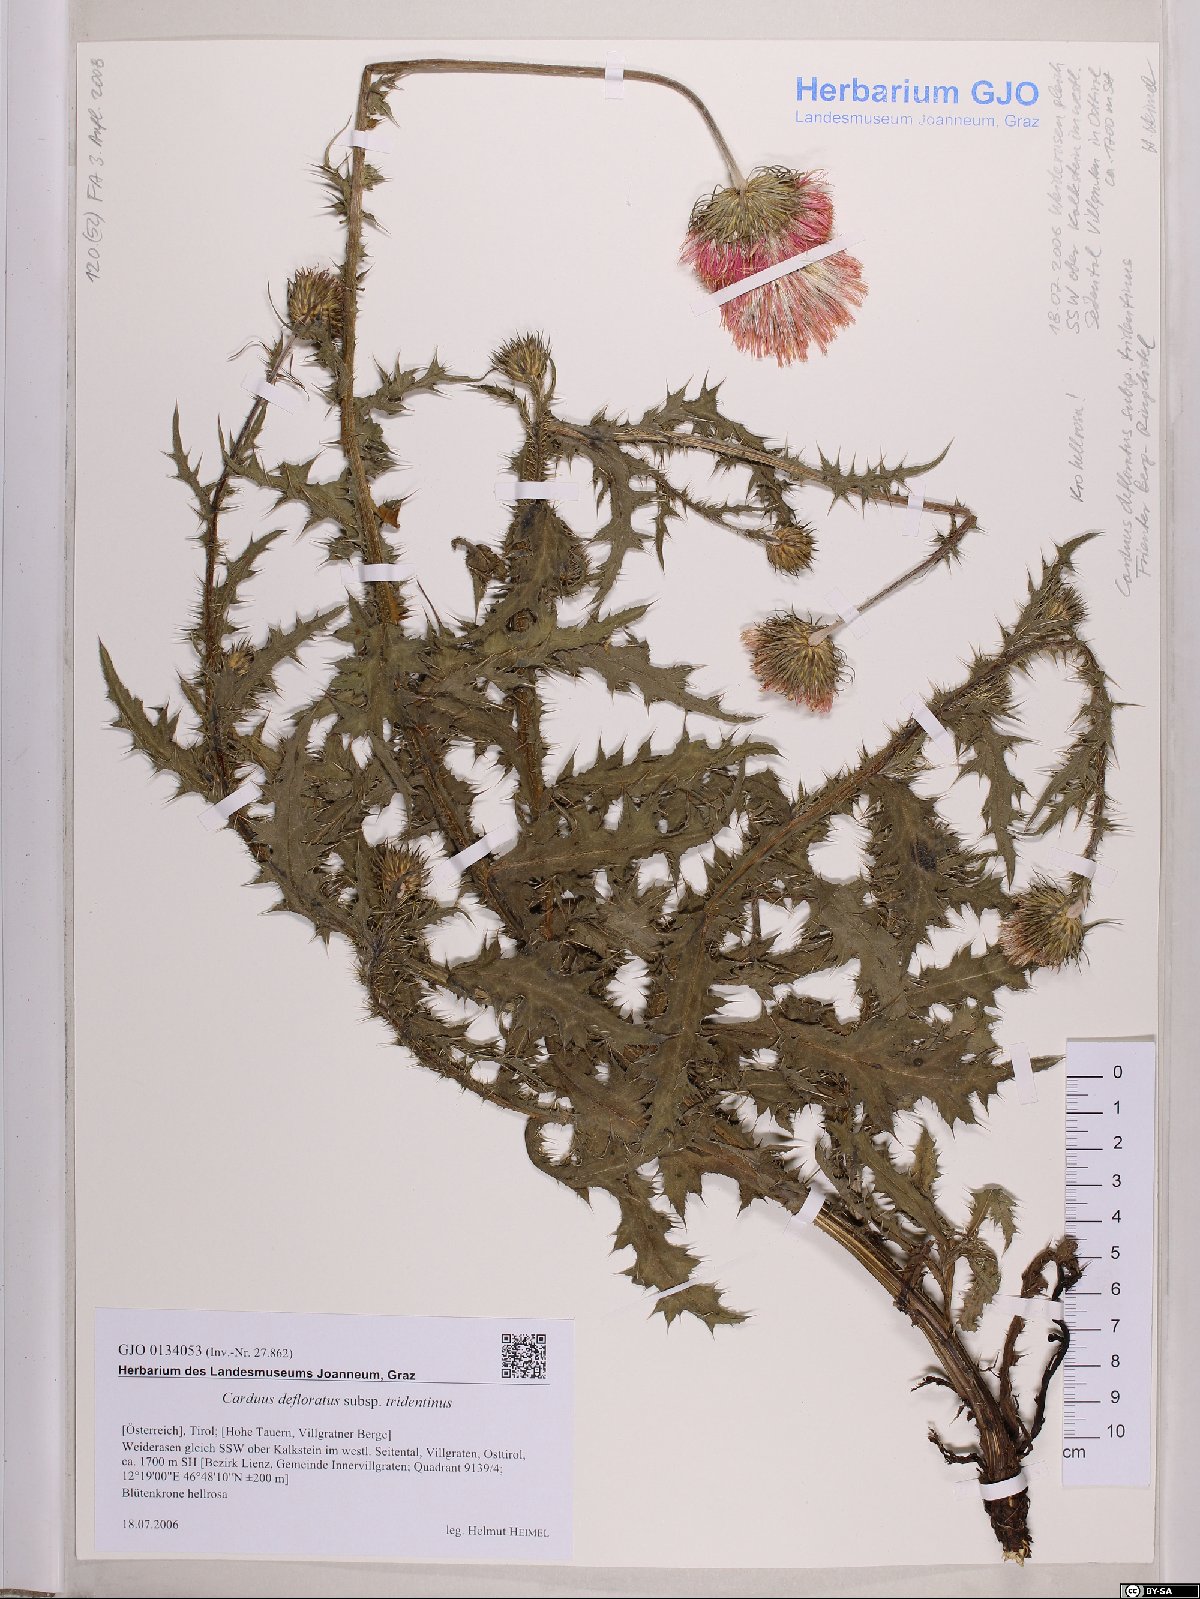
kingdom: Plantae
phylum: Tracheophyta
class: Magnoliopsida
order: Asterales
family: Asteraceae
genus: Carduus
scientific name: Carduus defloratus
